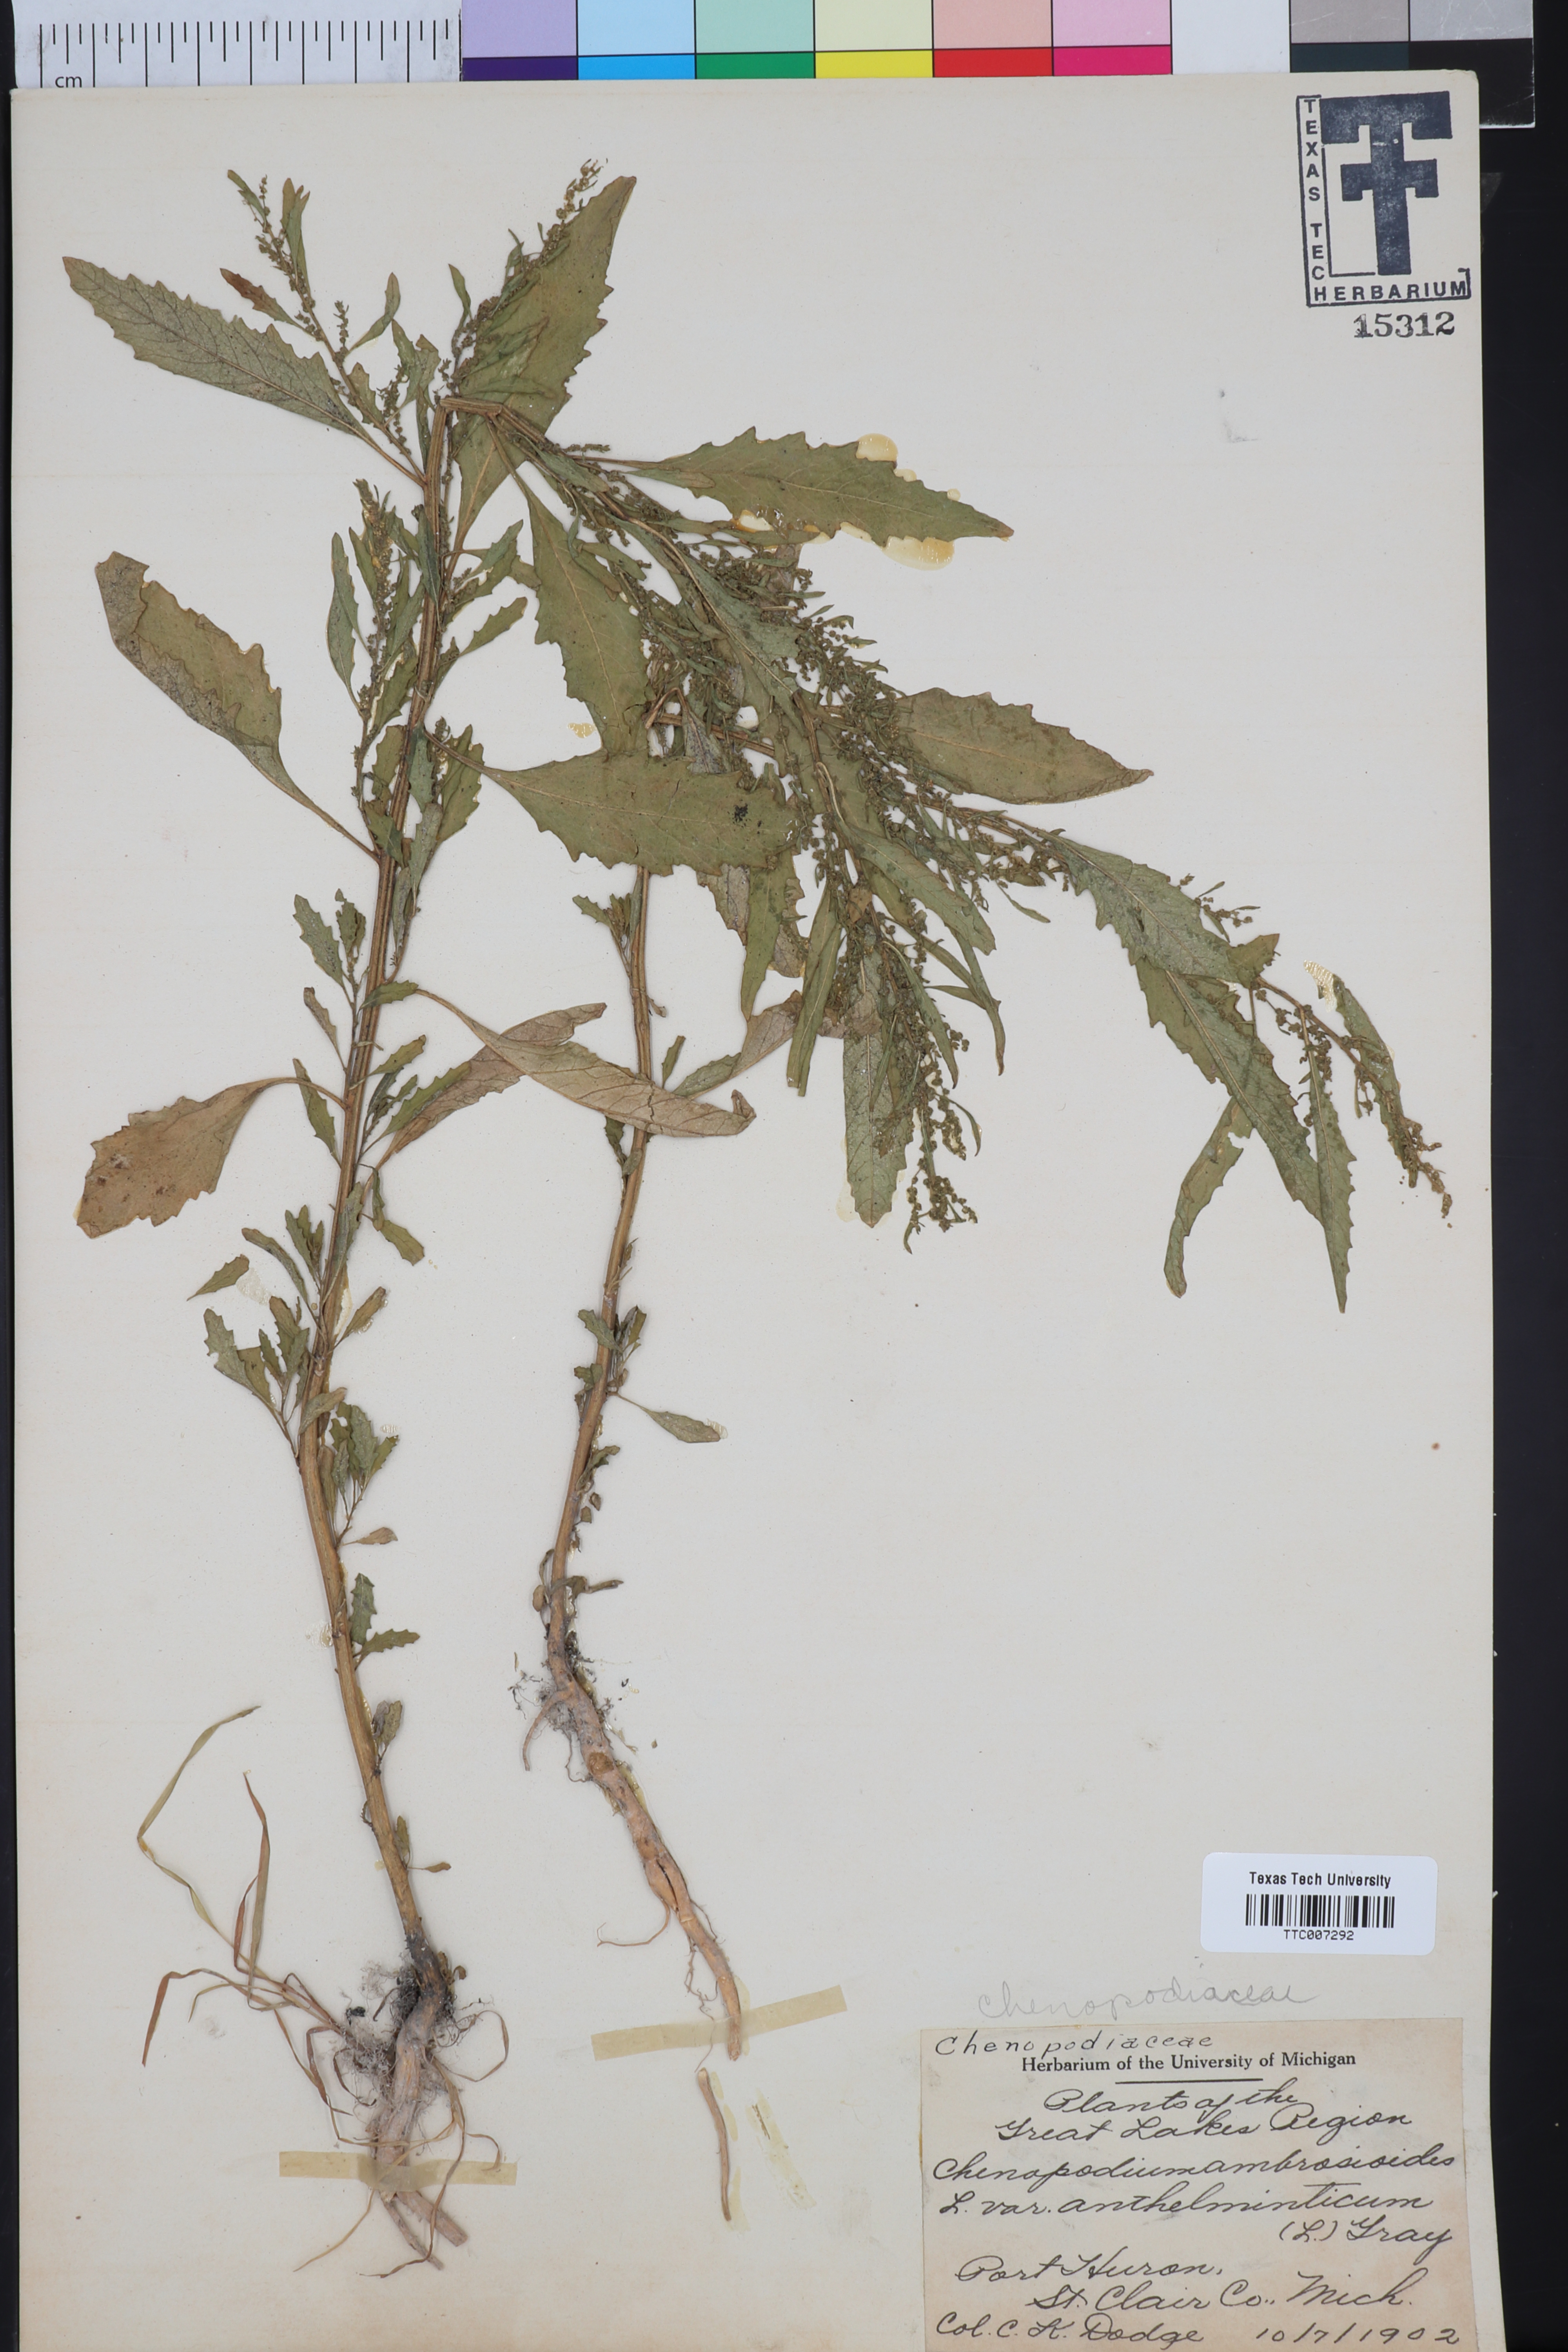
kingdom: Plantae
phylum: Tracheophyta
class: Magnoliopsida
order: Caryophyllales
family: Amaranthaceae
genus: Dysphania
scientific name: Dysphania anthelmintica
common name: Wormseed
